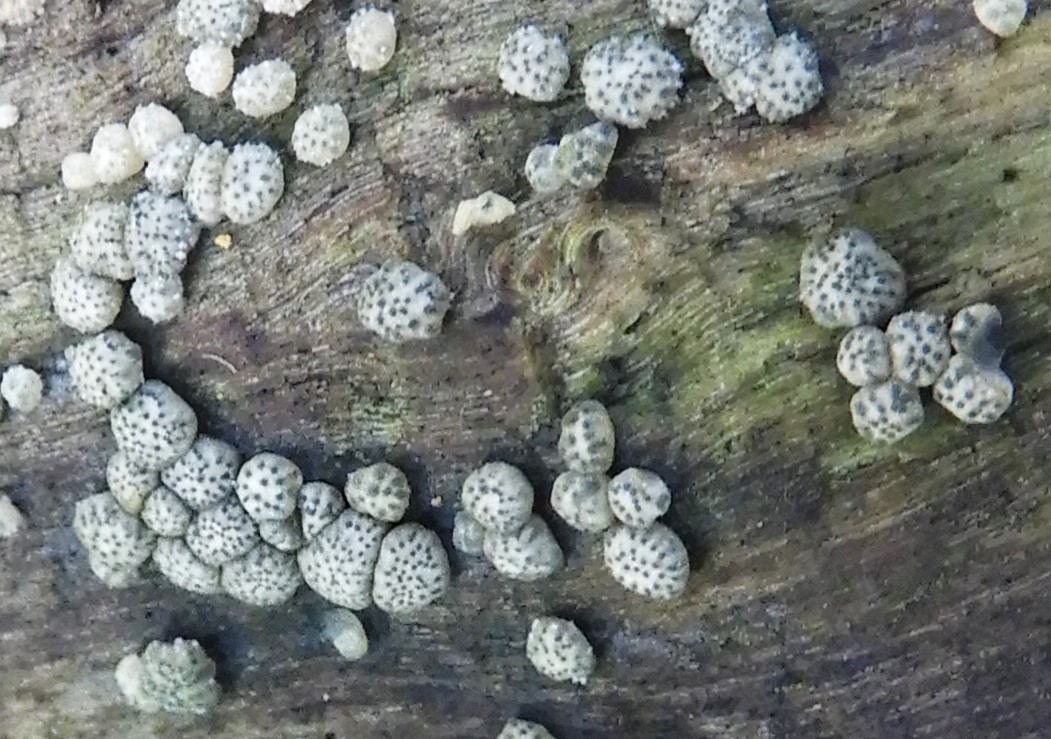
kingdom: Fungi
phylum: Ascomycota
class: Sordariomycetes
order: Hypocreales
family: Hypocreaceae
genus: Trichoderma
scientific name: Trichoderma strictipile
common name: grønprikket kødkerne
